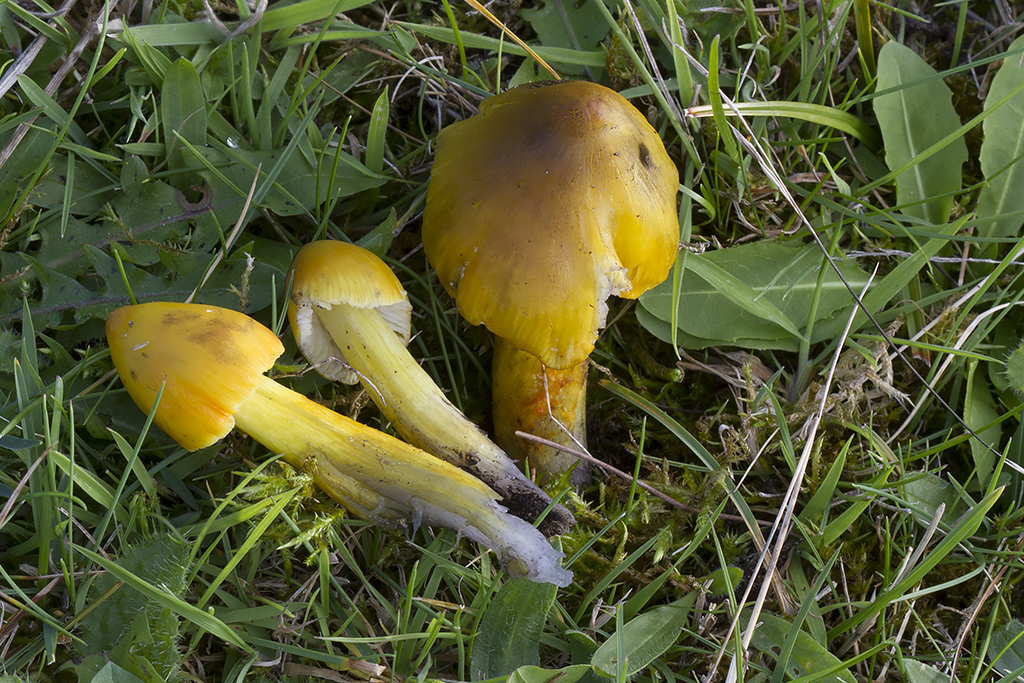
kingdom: Fungi
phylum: Basidiomycota
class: Agaricomycetes
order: Agaricales
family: Hygrophoraceae
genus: Hygrocybe
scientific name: Hygrocybe conica
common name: kegle-vokshat
